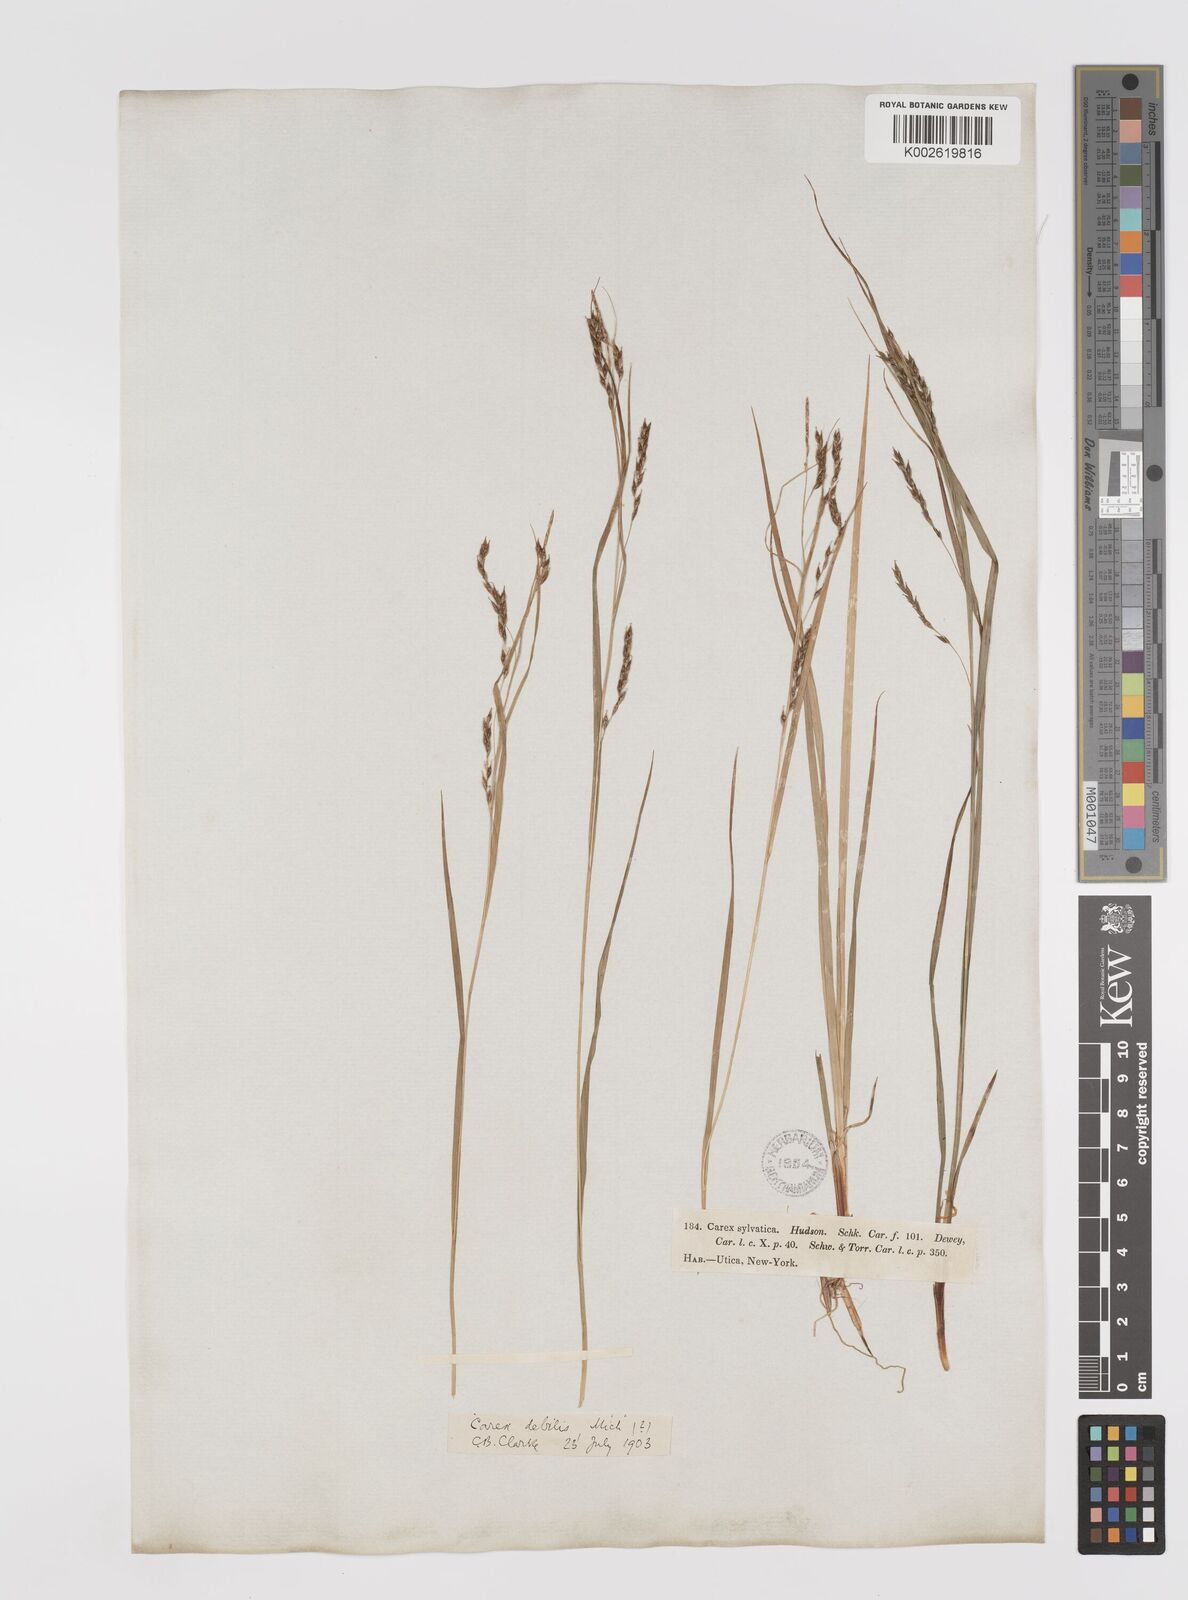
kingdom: Plantae
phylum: Tracheophyta
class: Liliopsida
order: Poales
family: Cyperaceae
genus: Carex
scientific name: Carex debilis
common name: White-edge sedge
